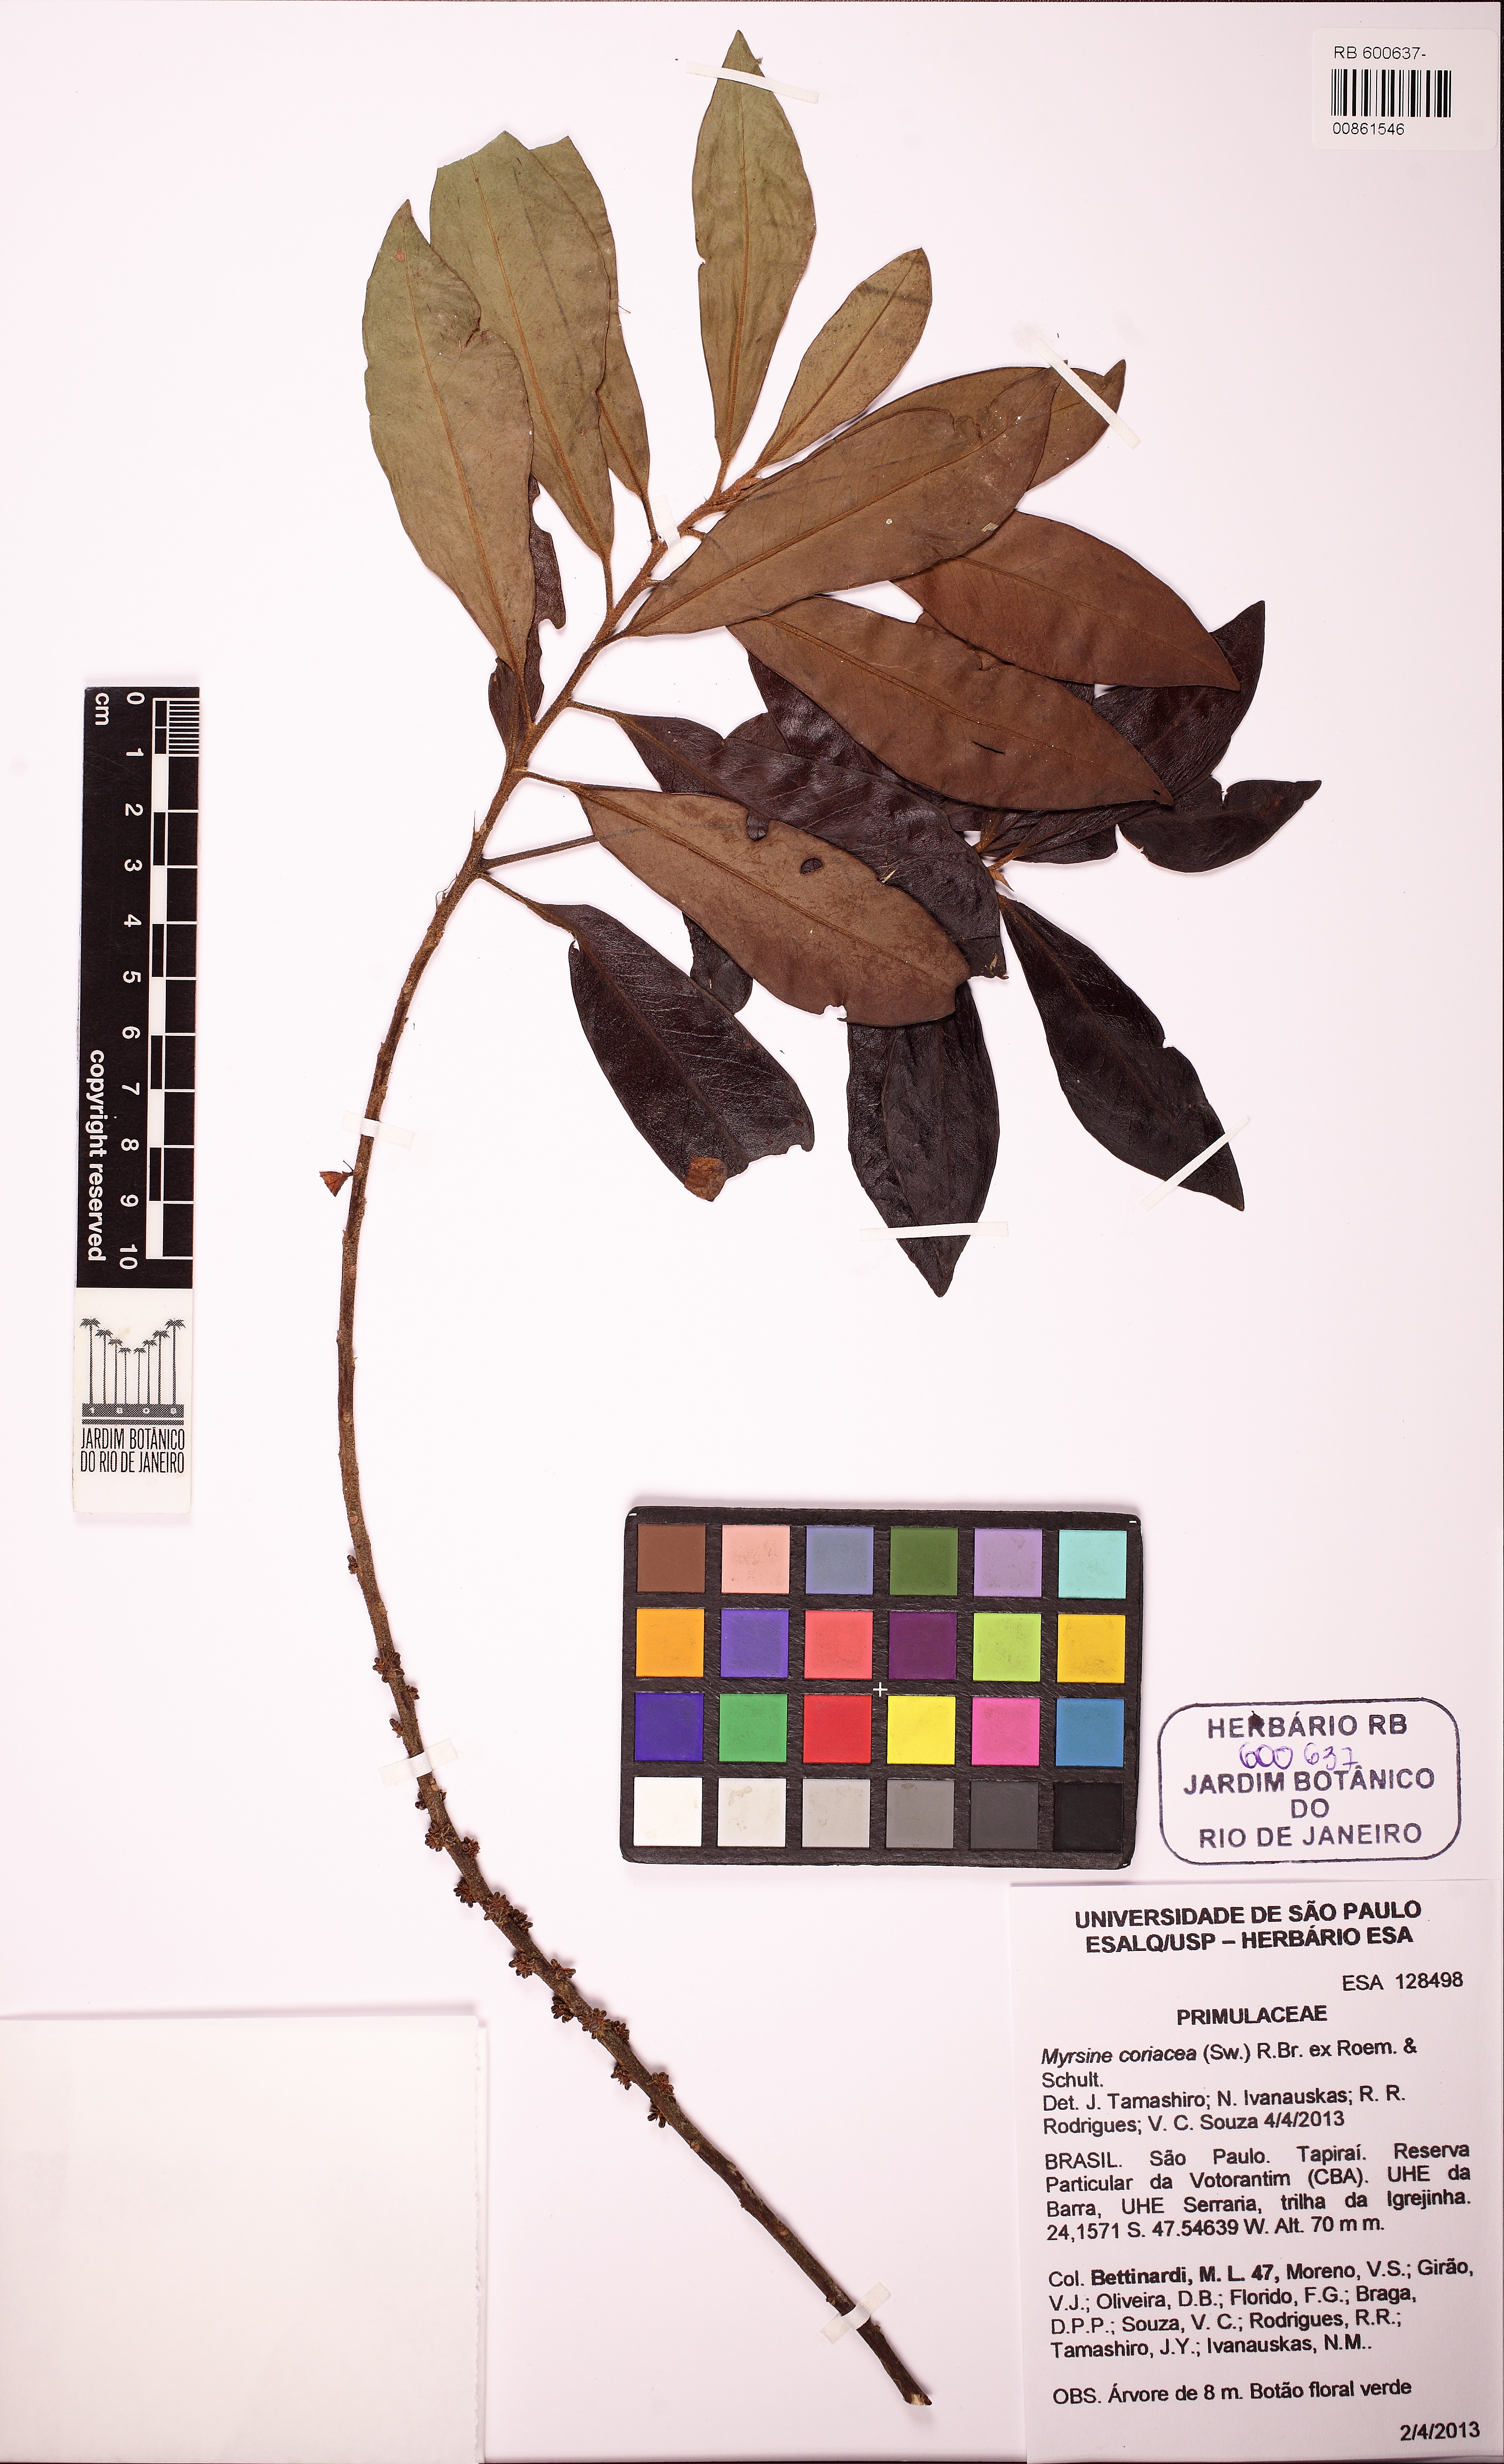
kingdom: Plantae
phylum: Tracheophyta
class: Magnoliopsida
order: Ericales
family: Primulaceae
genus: Myrsine
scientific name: Myrsine coriacea
